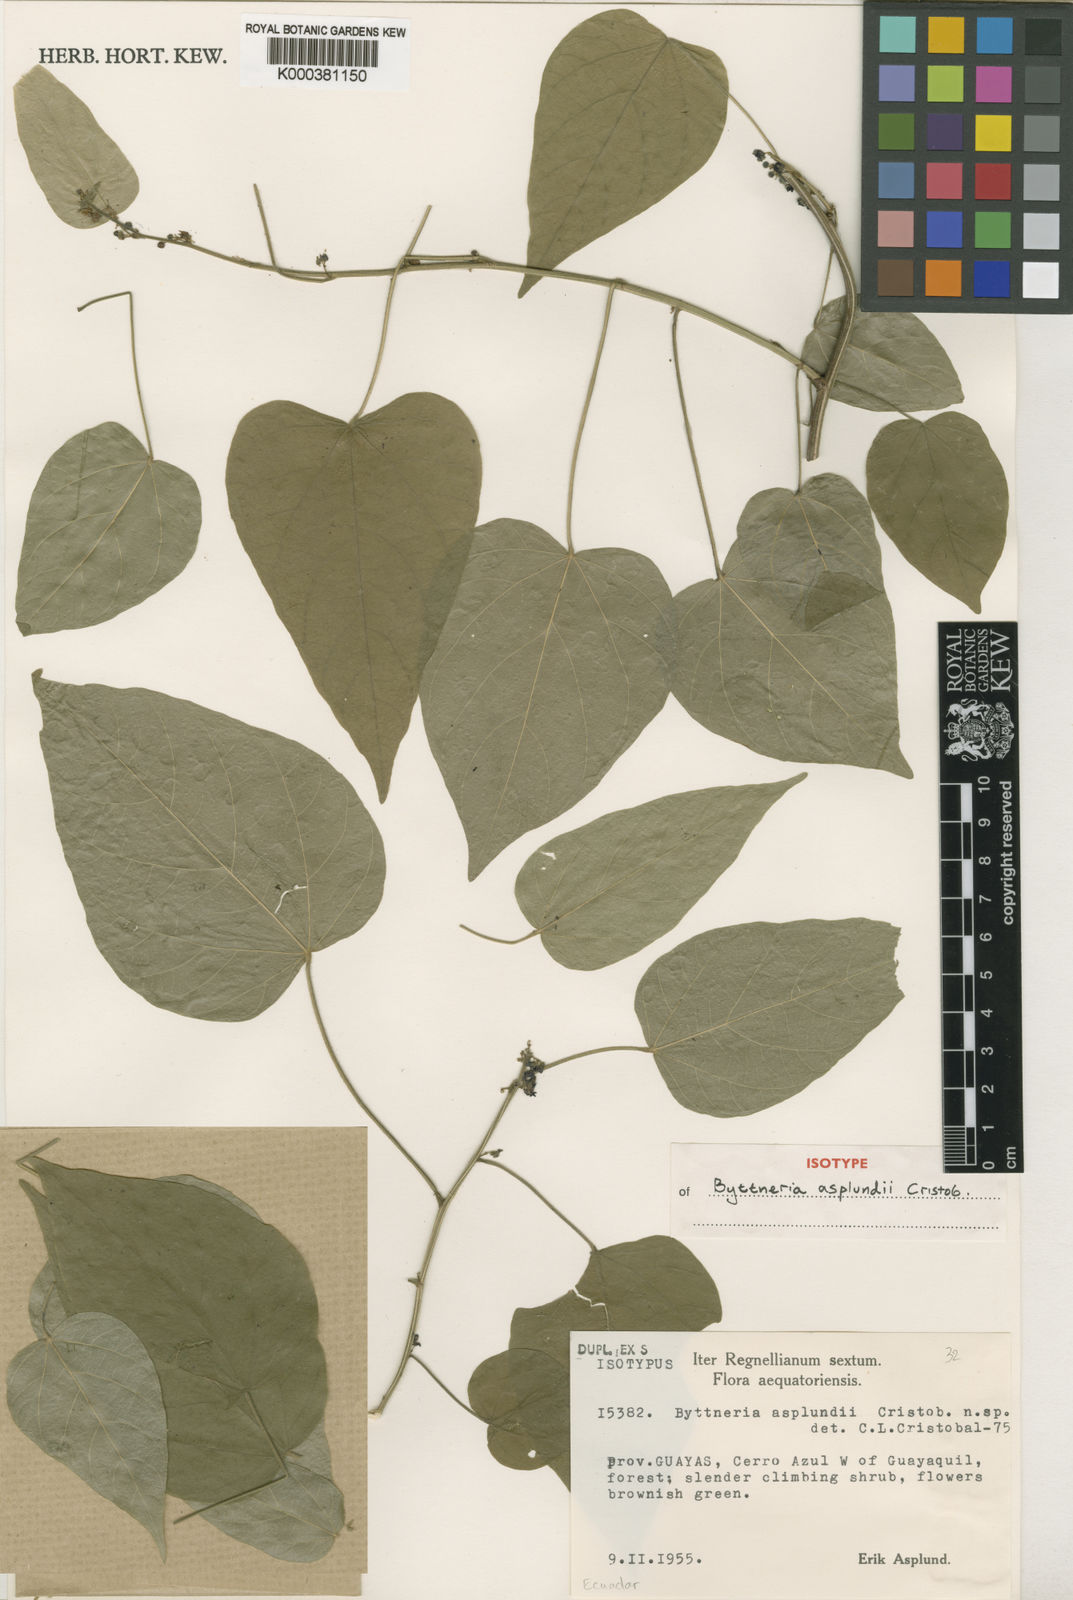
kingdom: Plantae
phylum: Tracheophyta
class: Magnoliopsida
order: Malvales
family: Malvaceae
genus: Byttneria
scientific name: Byttneria
